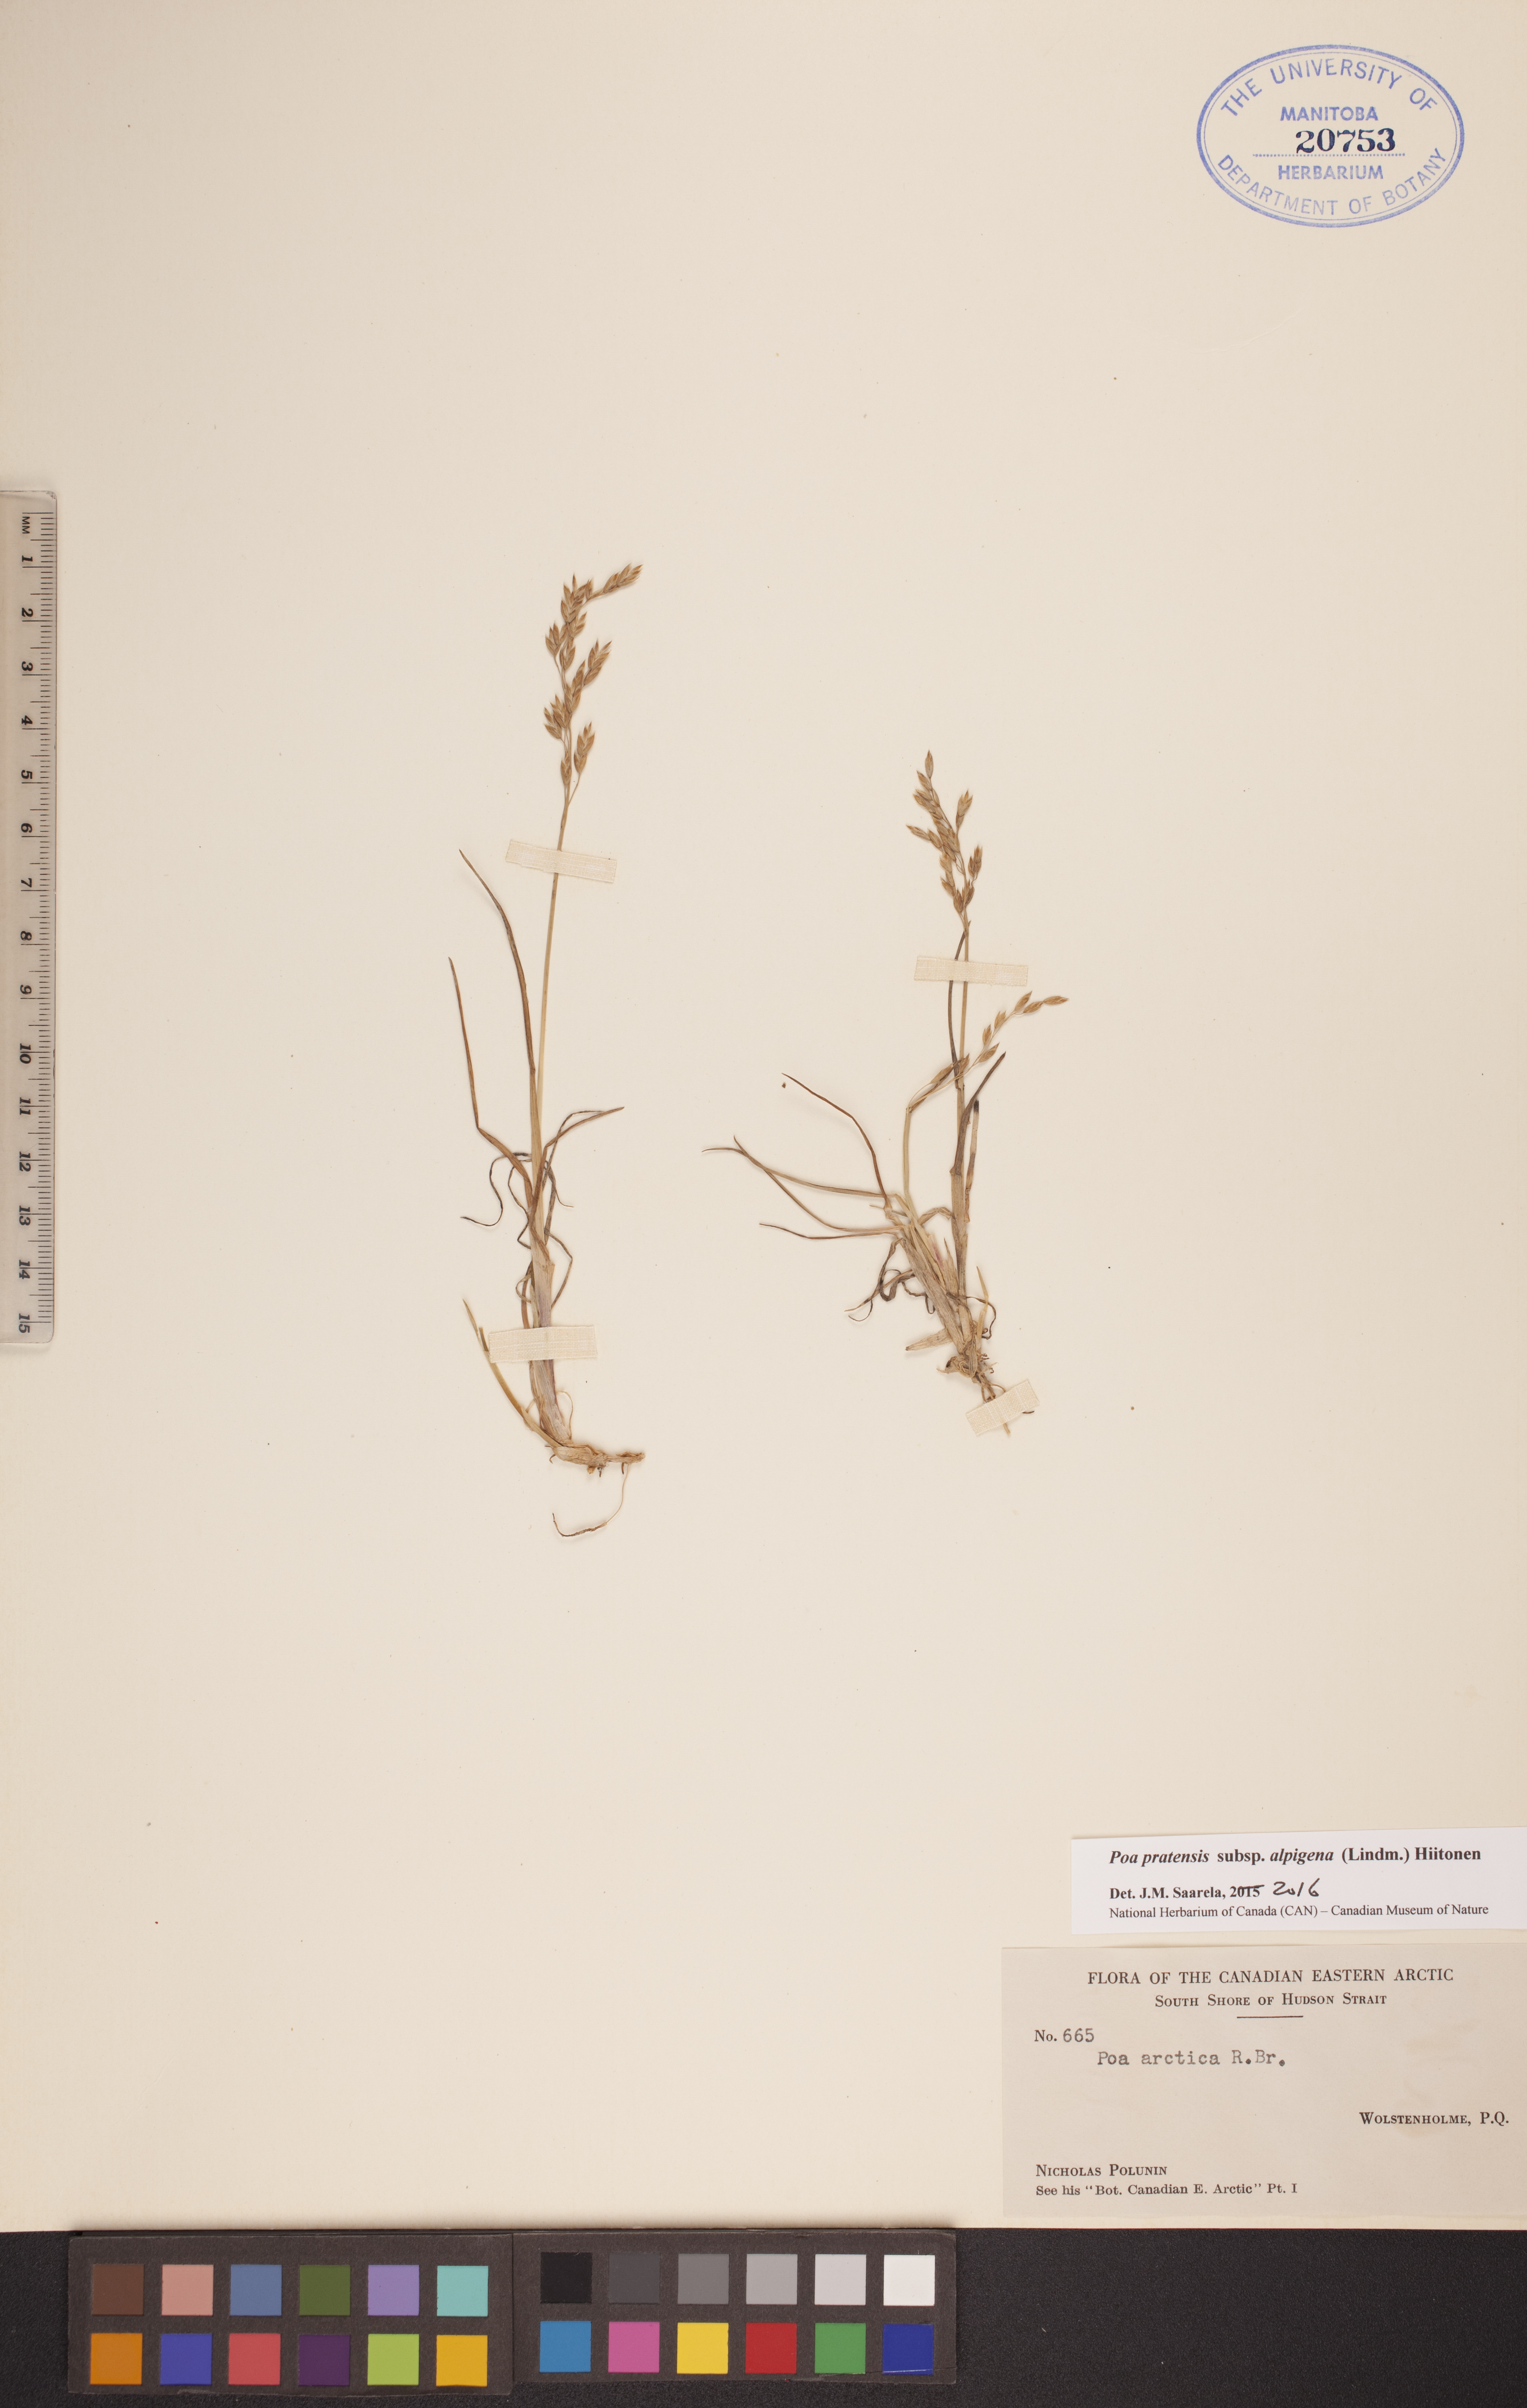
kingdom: Plantae
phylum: Tracheophyta
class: Liliopsida
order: Poales
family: Poaceae
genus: Poa
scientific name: Poa alpigena
